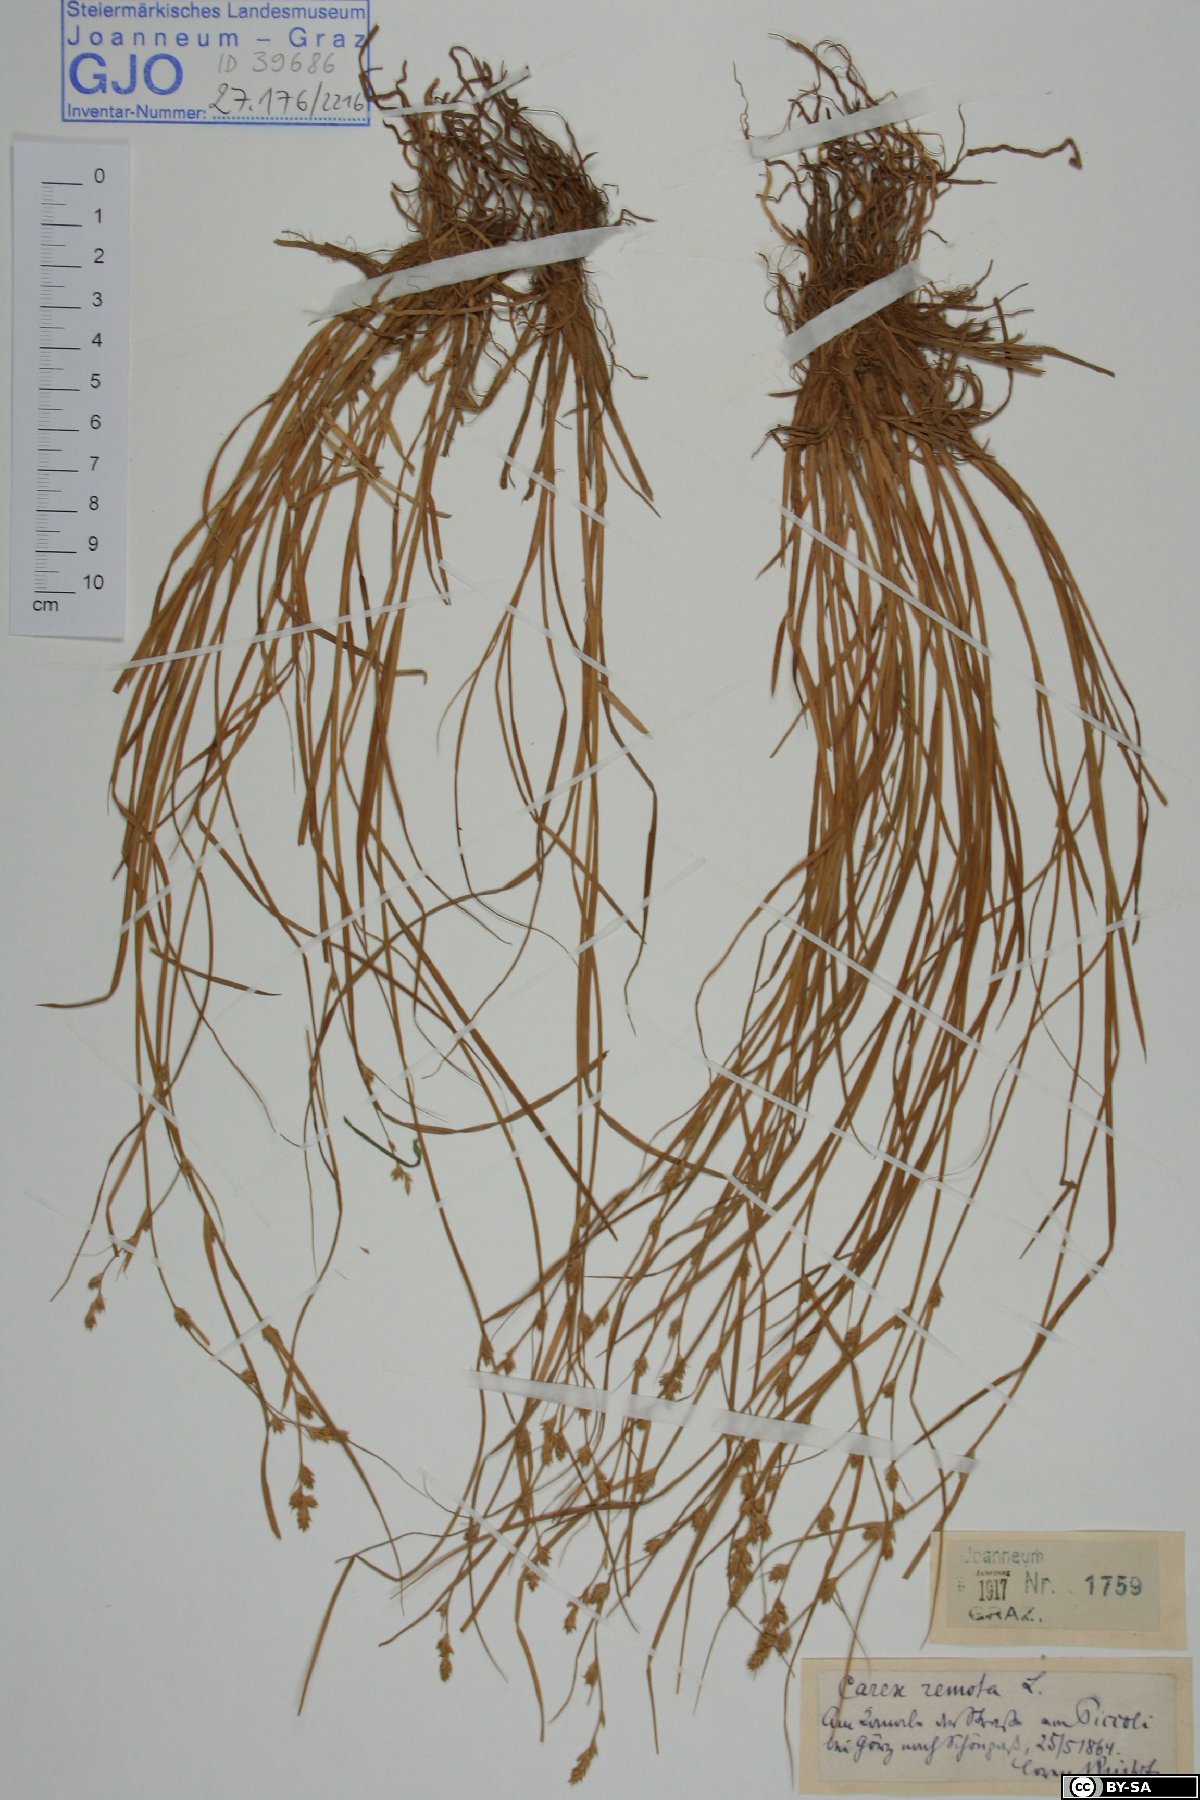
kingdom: Plantae
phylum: Tracheophyta
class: Liliopsida
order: Poales
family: Cyperaceae
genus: Carex
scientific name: Carex remota
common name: Remote sedge
